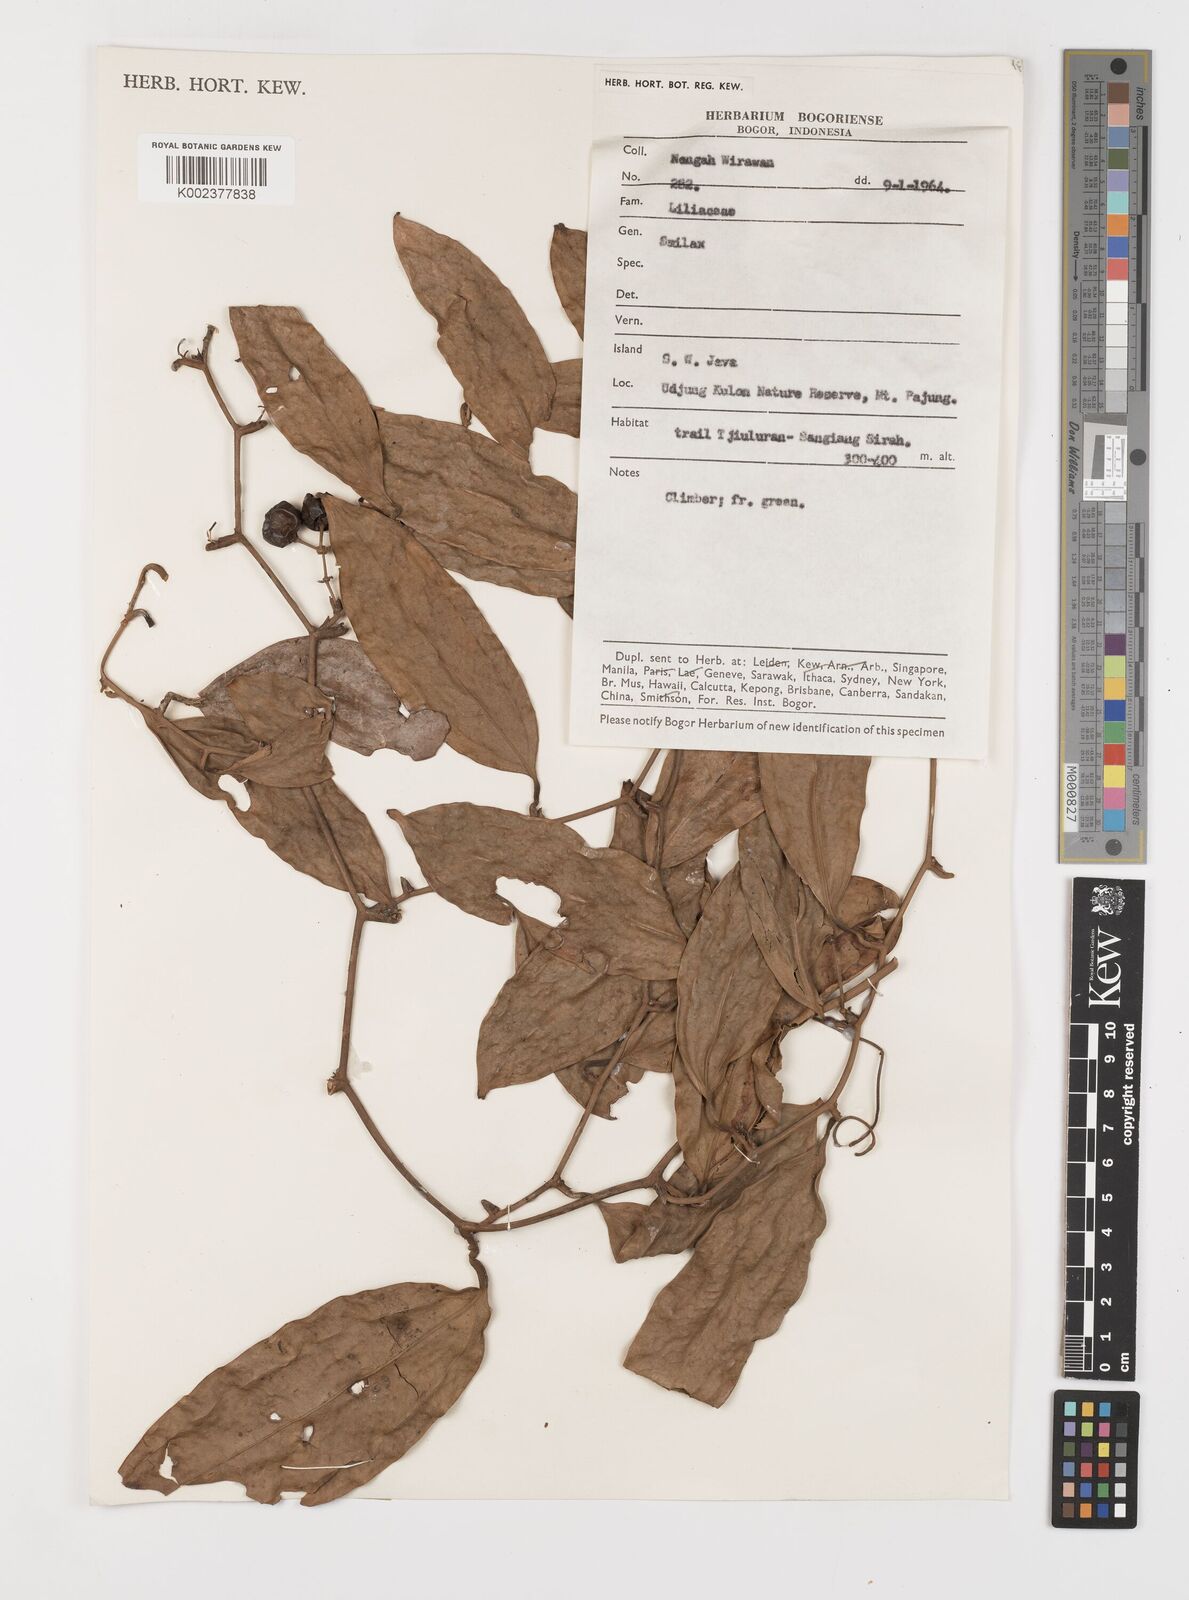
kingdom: Plantae
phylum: Tracheophyta
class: Liliopsida
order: Liliales
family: Smilacaceae
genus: Smilax
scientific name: Smilax
